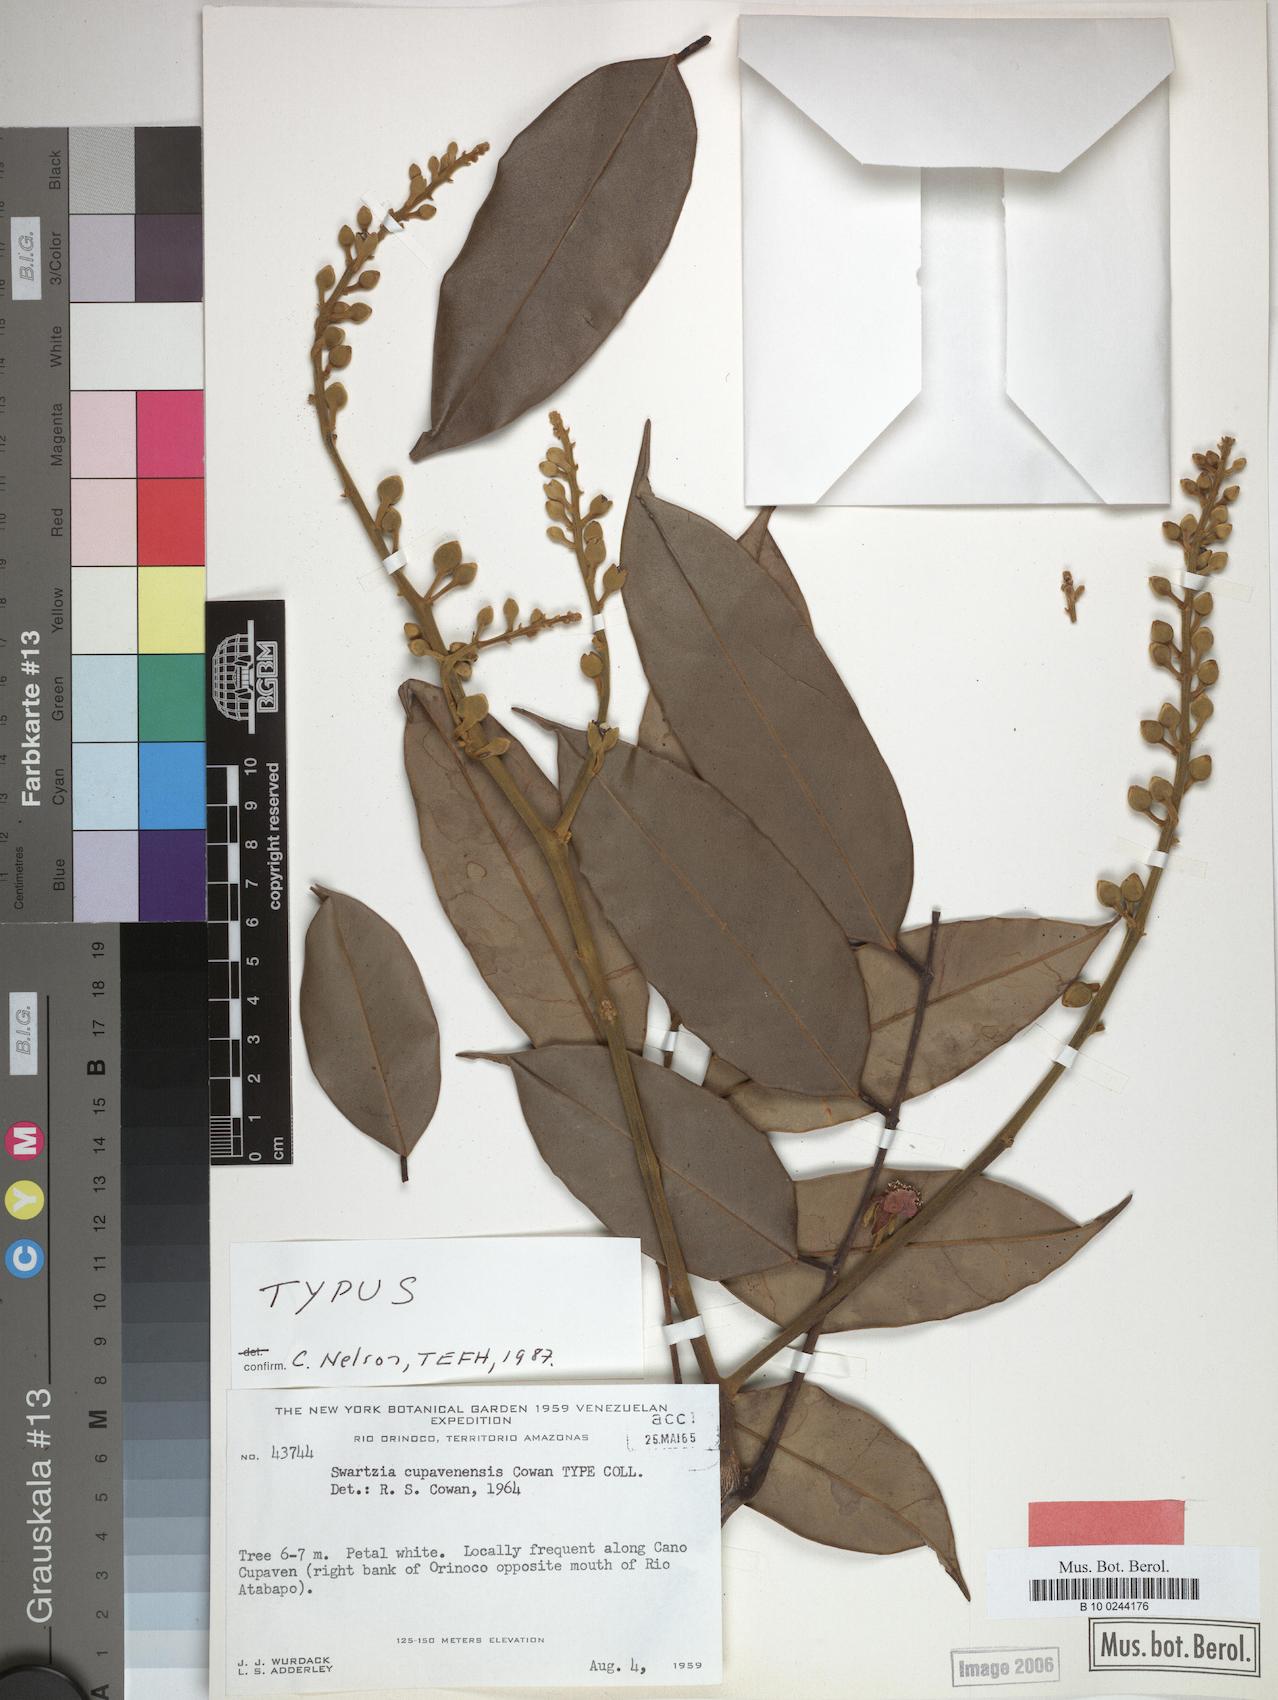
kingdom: Plantae
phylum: Tracheophyta
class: Magnoliopsida
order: Fabales
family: Fabaceae
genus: Swartzia
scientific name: Swartzia cupavenensis
